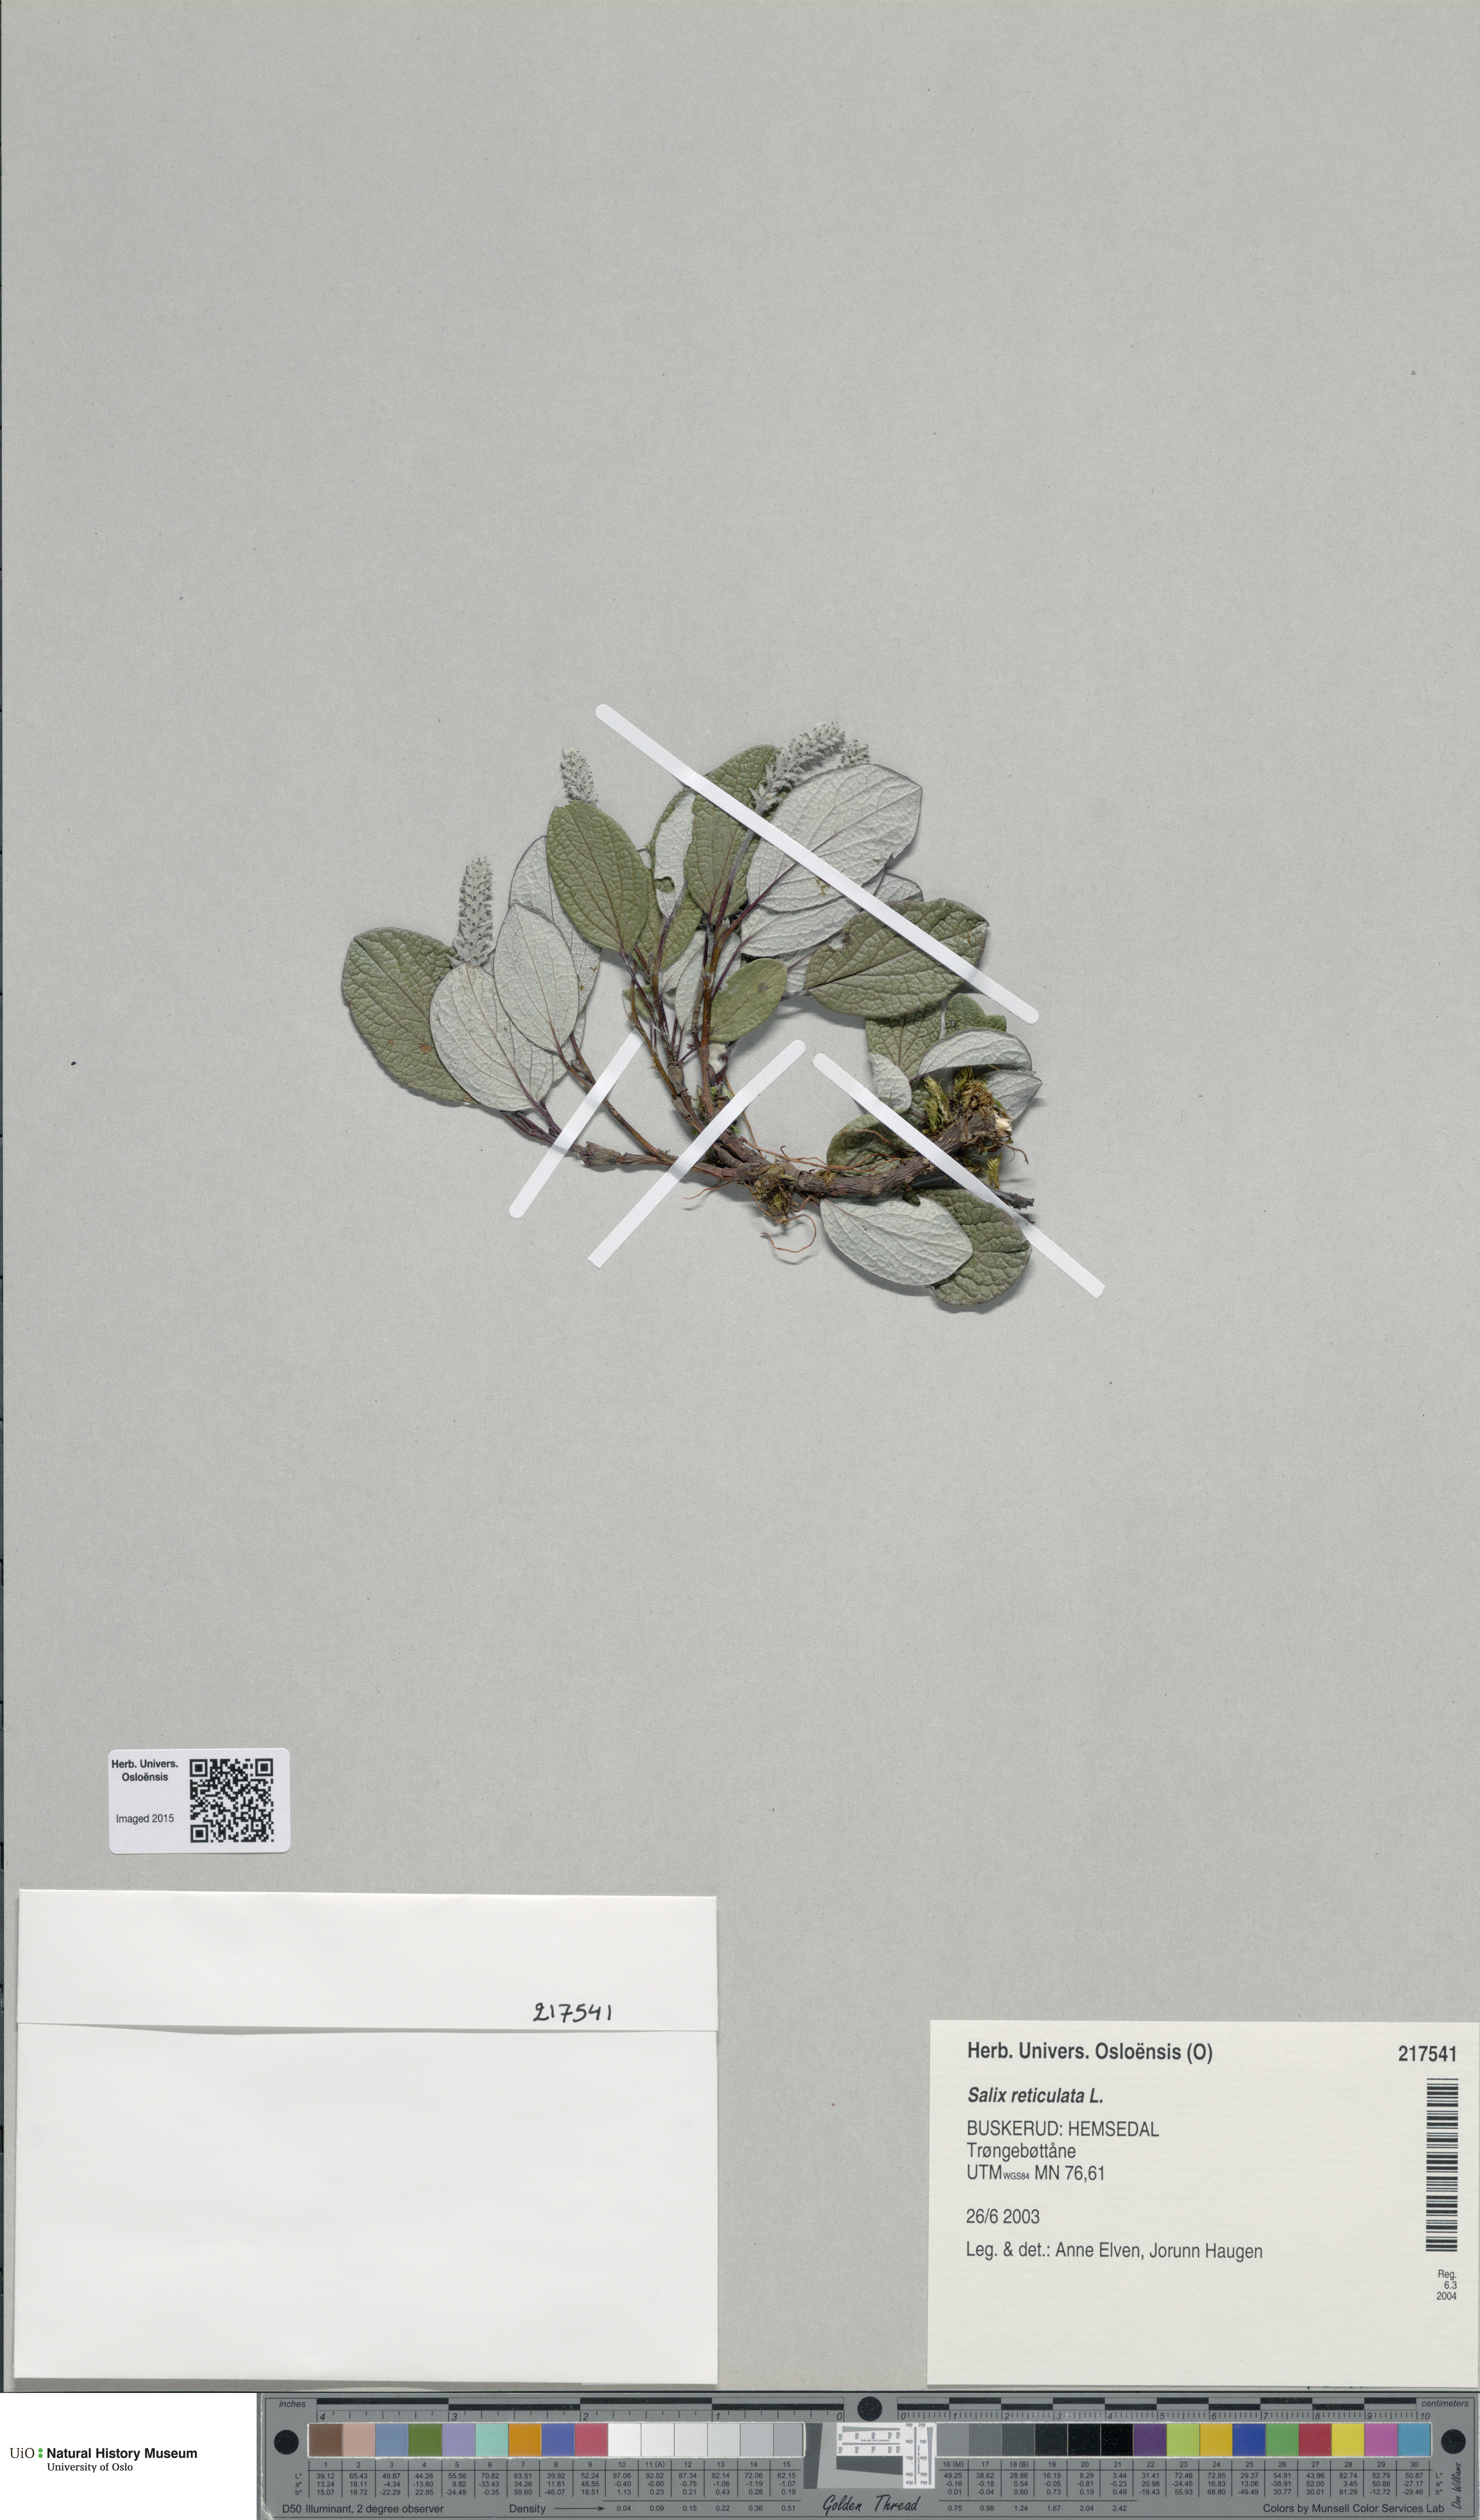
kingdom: Plantae
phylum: Tracheophyta
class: Magnoliopsida
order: Malpighiales
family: Salicaceae
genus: Salix
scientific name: Salix reticulata
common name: Net-leaved willow
